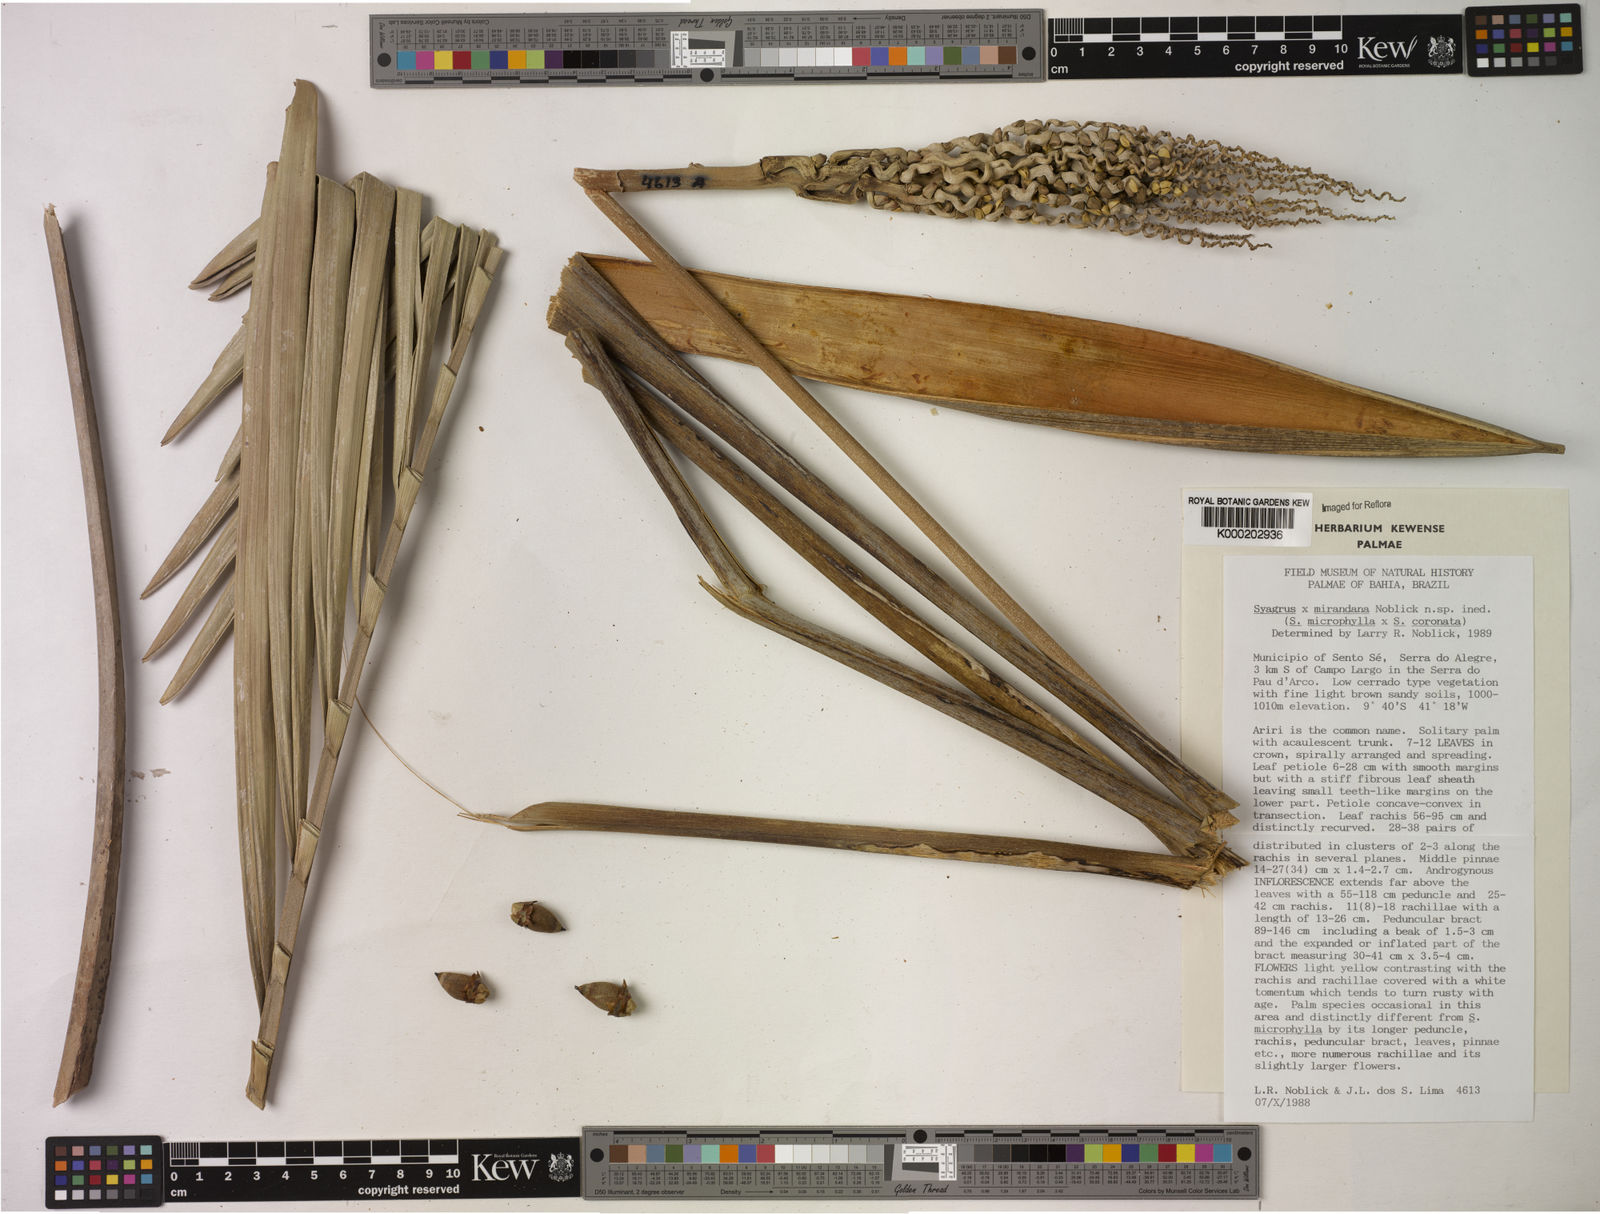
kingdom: Plantae
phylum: Tracheophyta
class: Liliopsida
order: Arecales
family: Arecaceae
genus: Syagrus
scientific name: Syagrus mirandana
